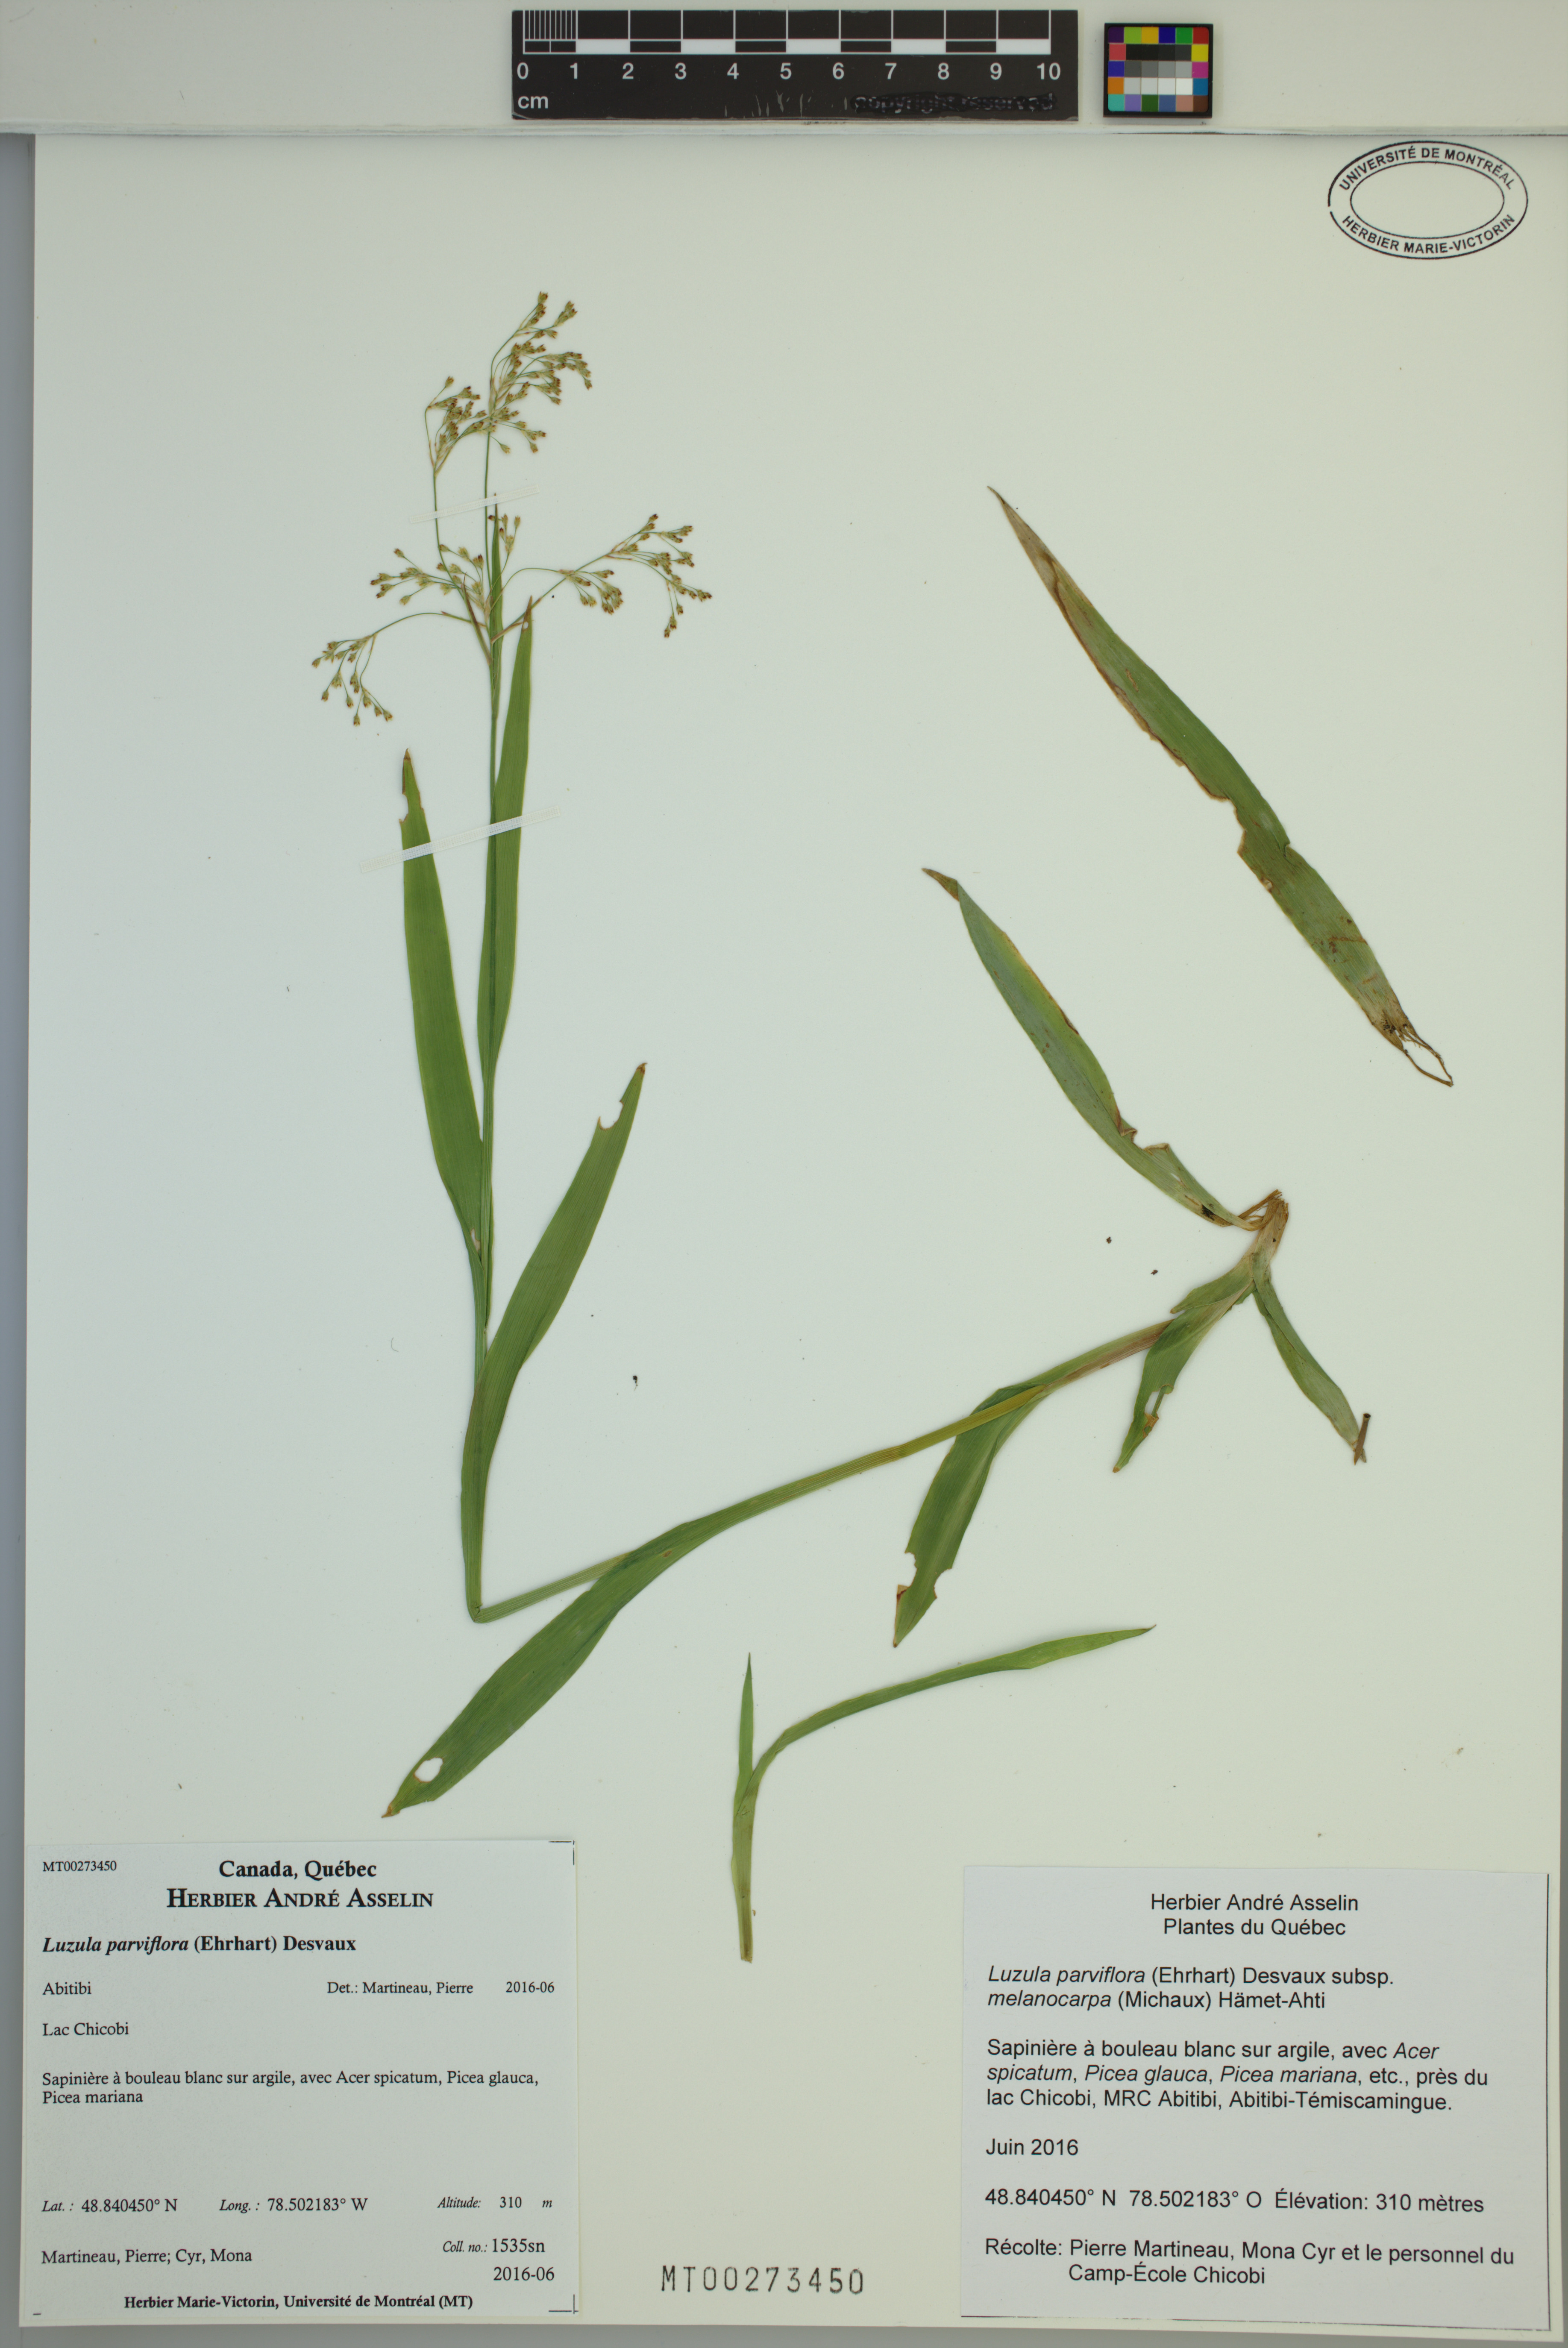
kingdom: Plantae
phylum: Tracheophyta
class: Liliopsida
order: Poales
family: Juncaceae
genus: Luzula
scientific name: Luzula parviflora
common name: Millet woodrush
